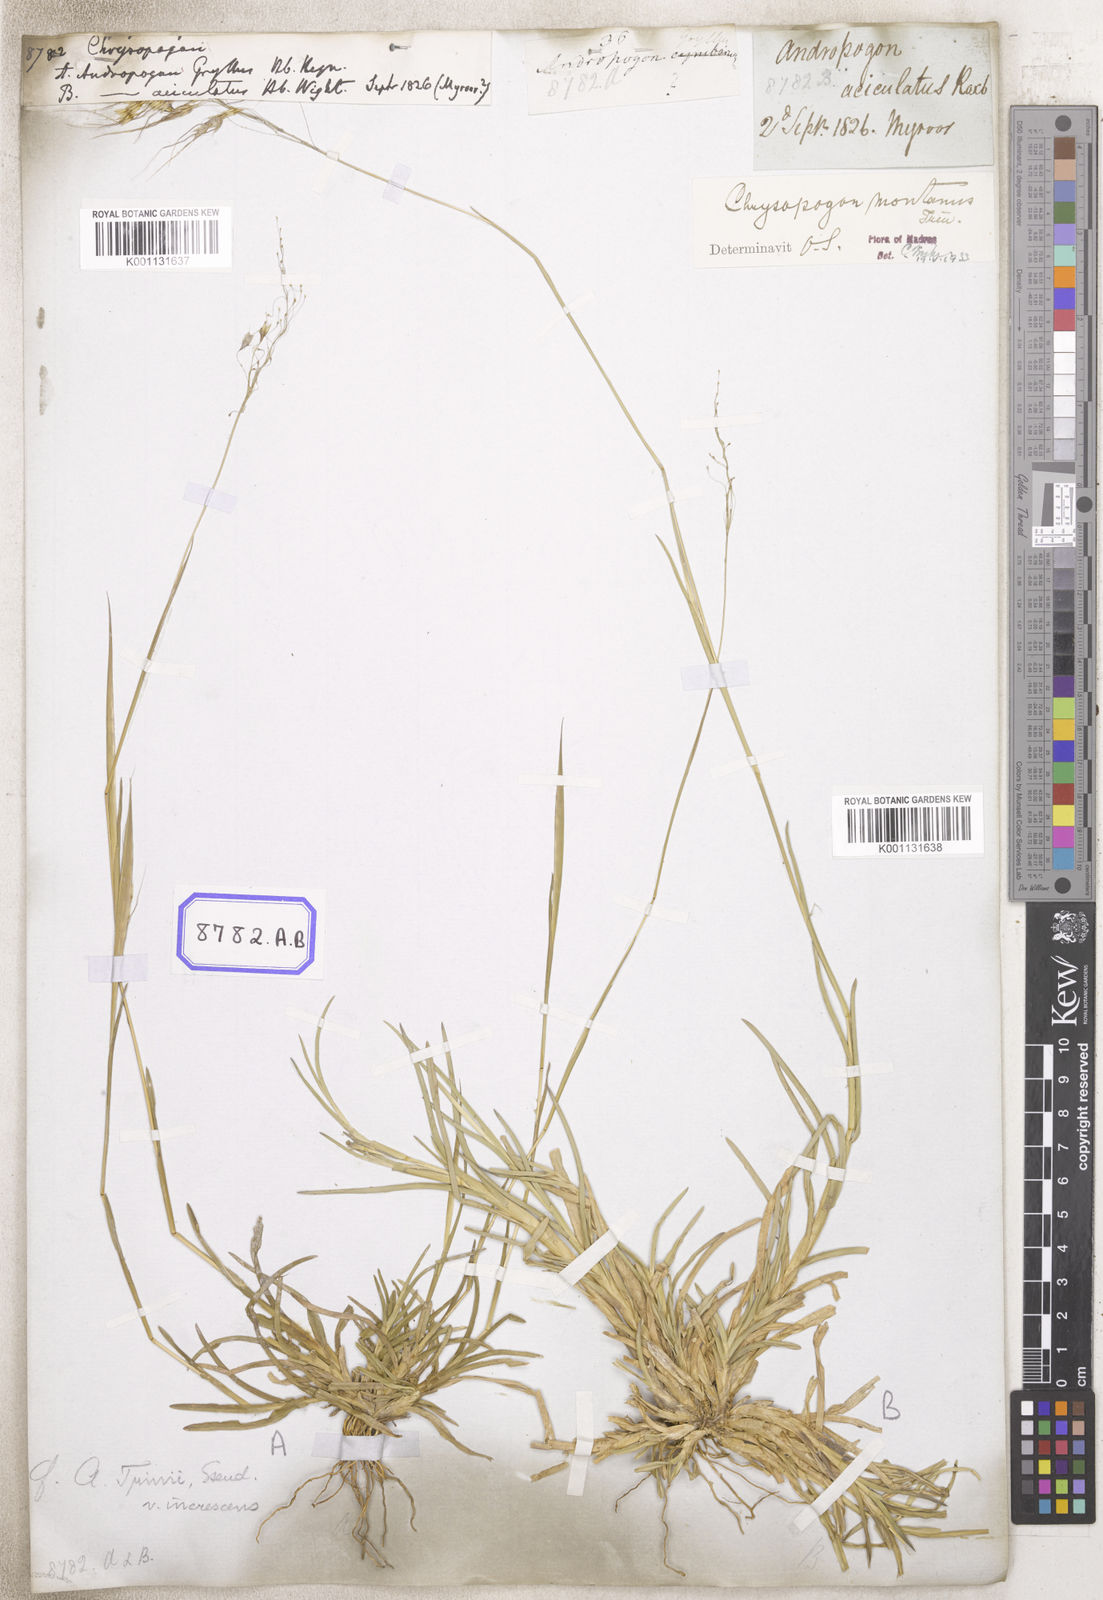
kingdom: Plantae
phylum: Tracheophyta
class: Liliopsida
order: Poales
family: Poaceae
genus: Chrysopogon
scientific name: Chrysopogon
